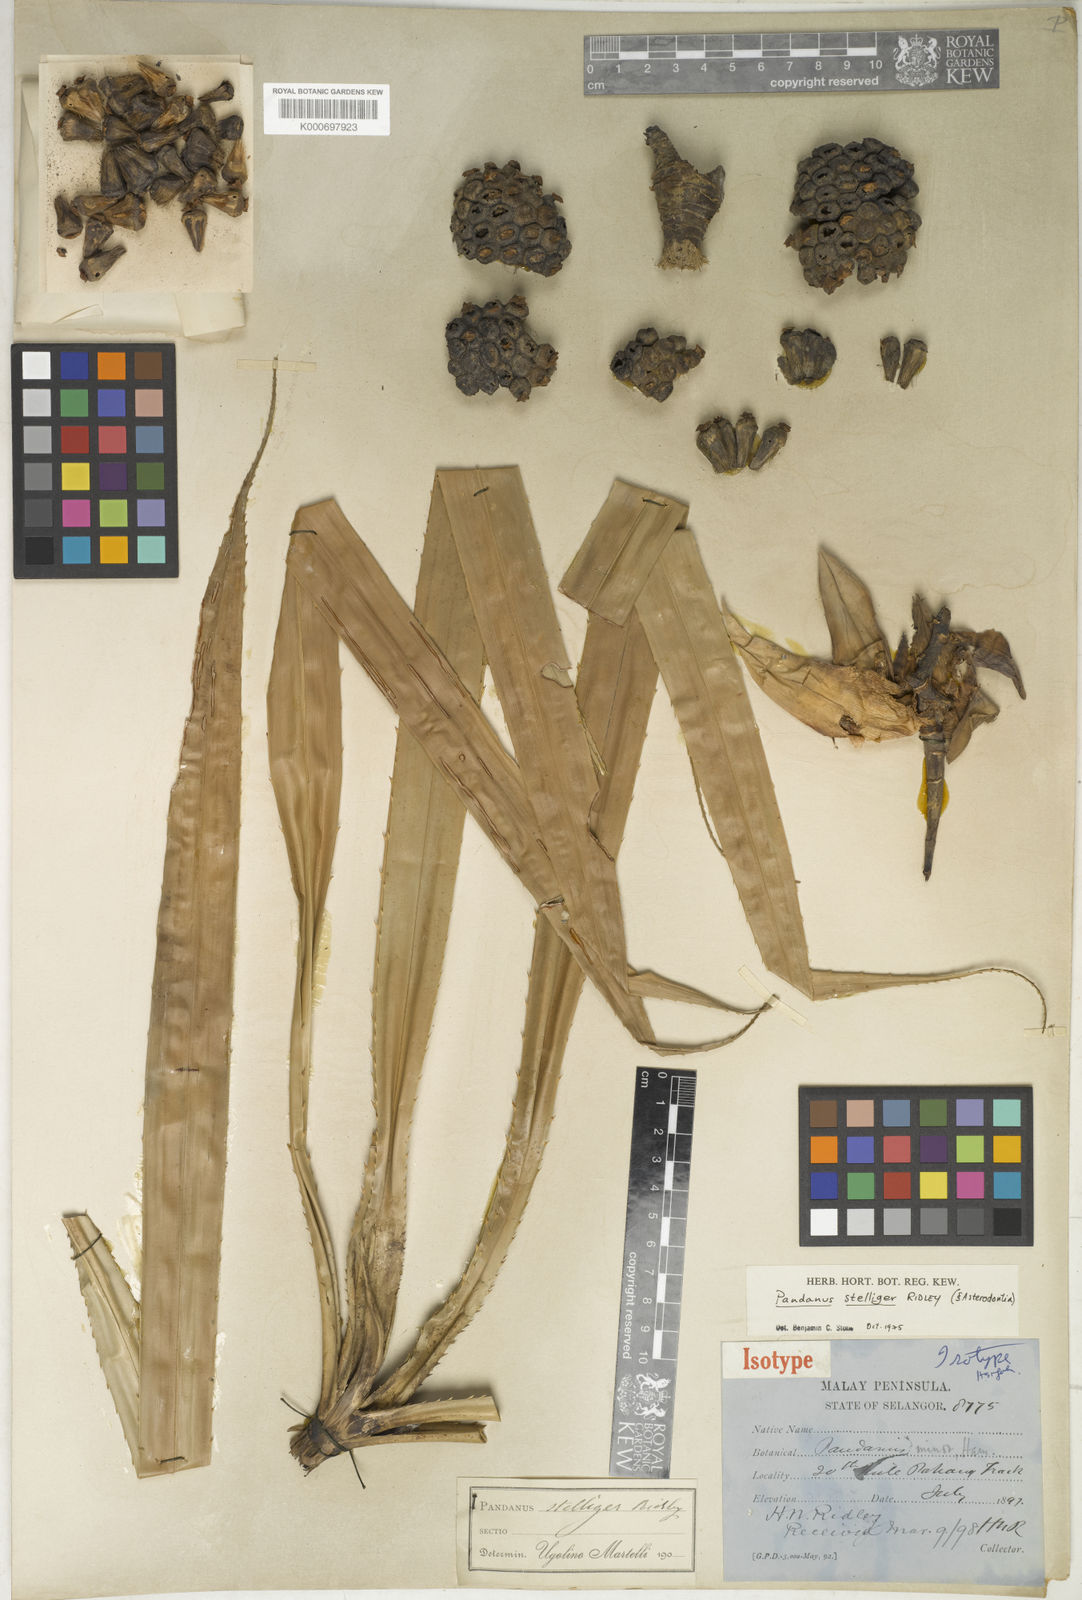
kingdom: Plantae
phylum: Tracheophyta
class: Liliopsida
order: Pandanales
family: Pandanaceae
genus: Pandanus
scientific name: Pandanus stelliger
